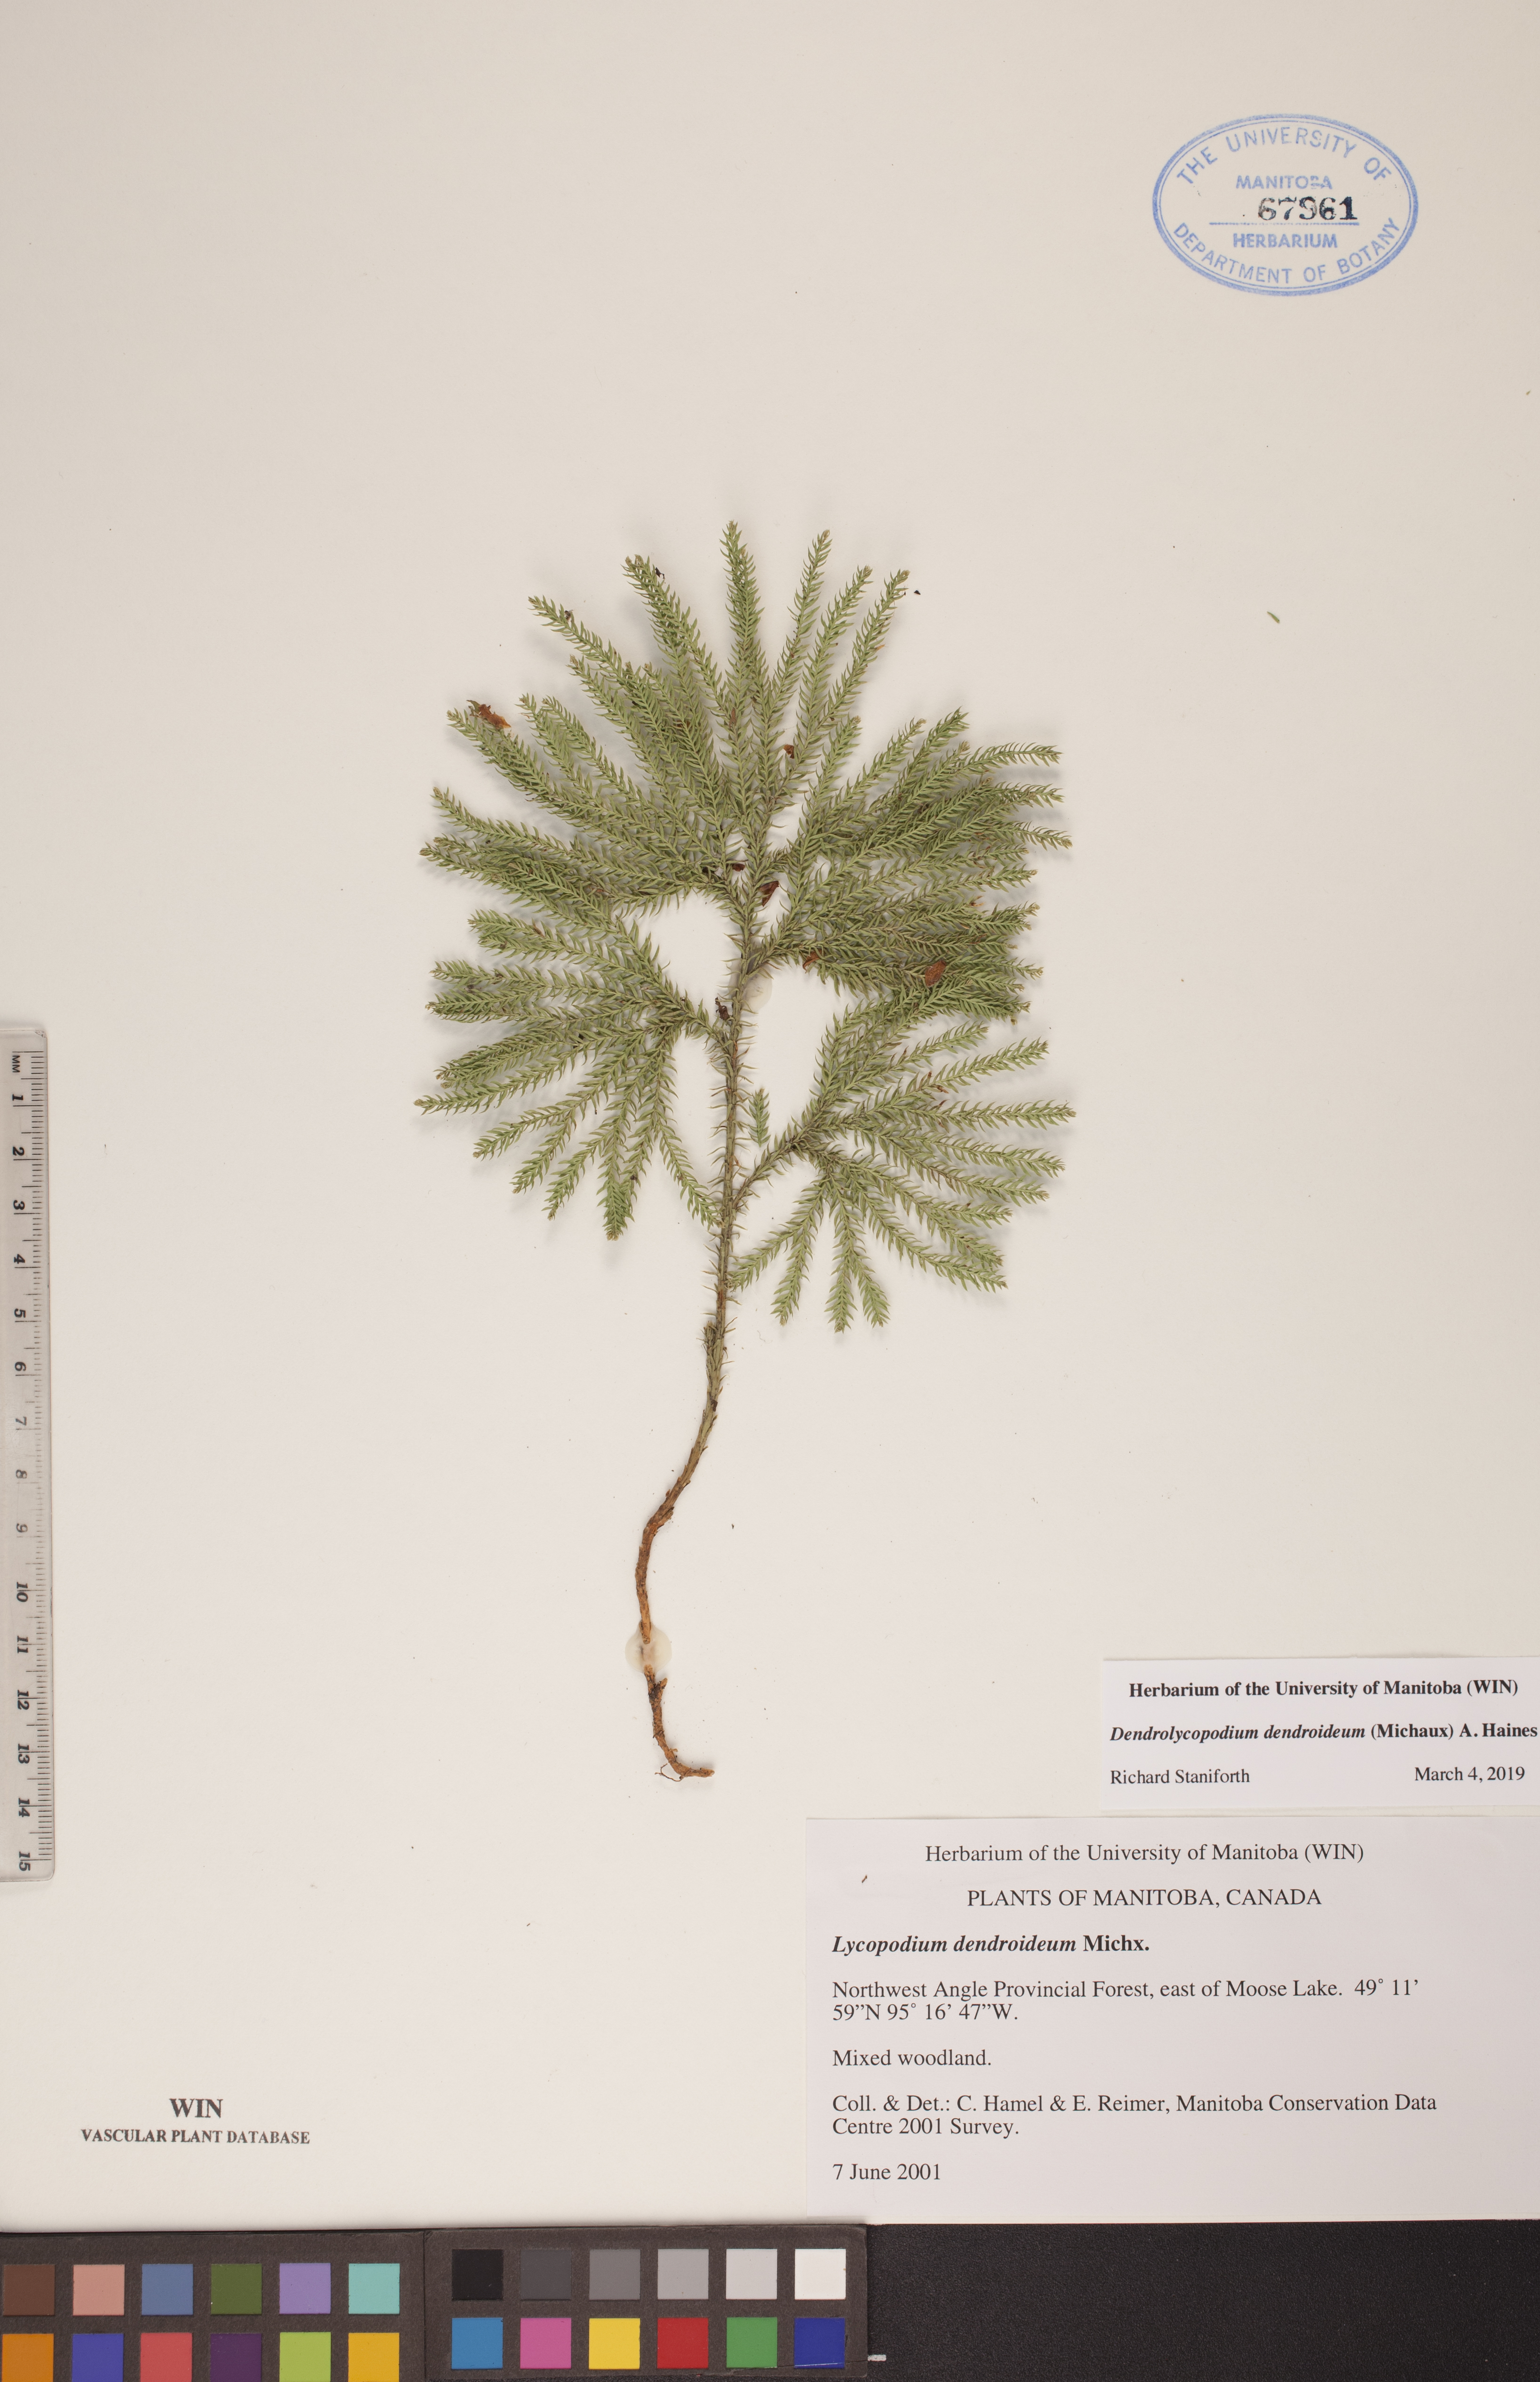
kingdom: Plantae
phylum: Tracheophyta
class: Lycopodiopsida
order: Lycopodiales
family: Lycopodiaceae
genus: Dendrolycopodium
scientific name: Dendrolycopodium dendroideum
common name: Northern tree-clubmoss
